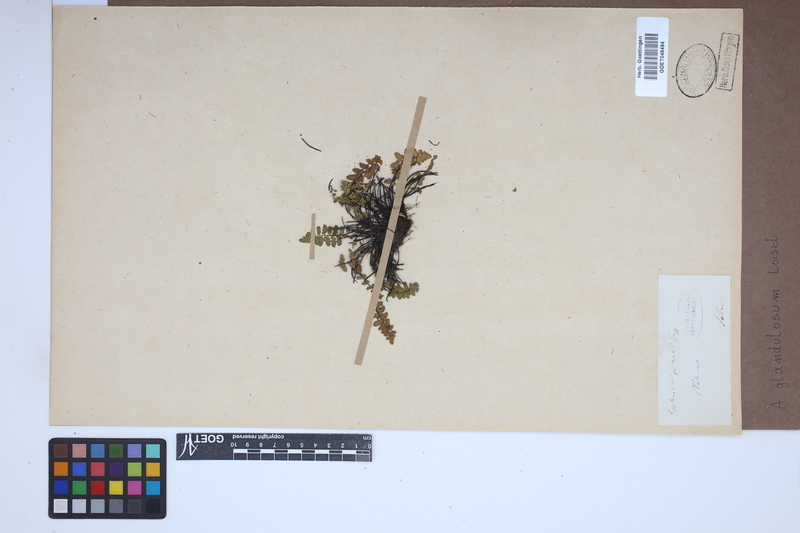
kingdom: Plantae
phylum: Tracheophyta
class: Polypodiopsida
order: Polypodiales
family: Aspleniaceae
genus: Asplenium
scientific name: Asplenium petrarchae
